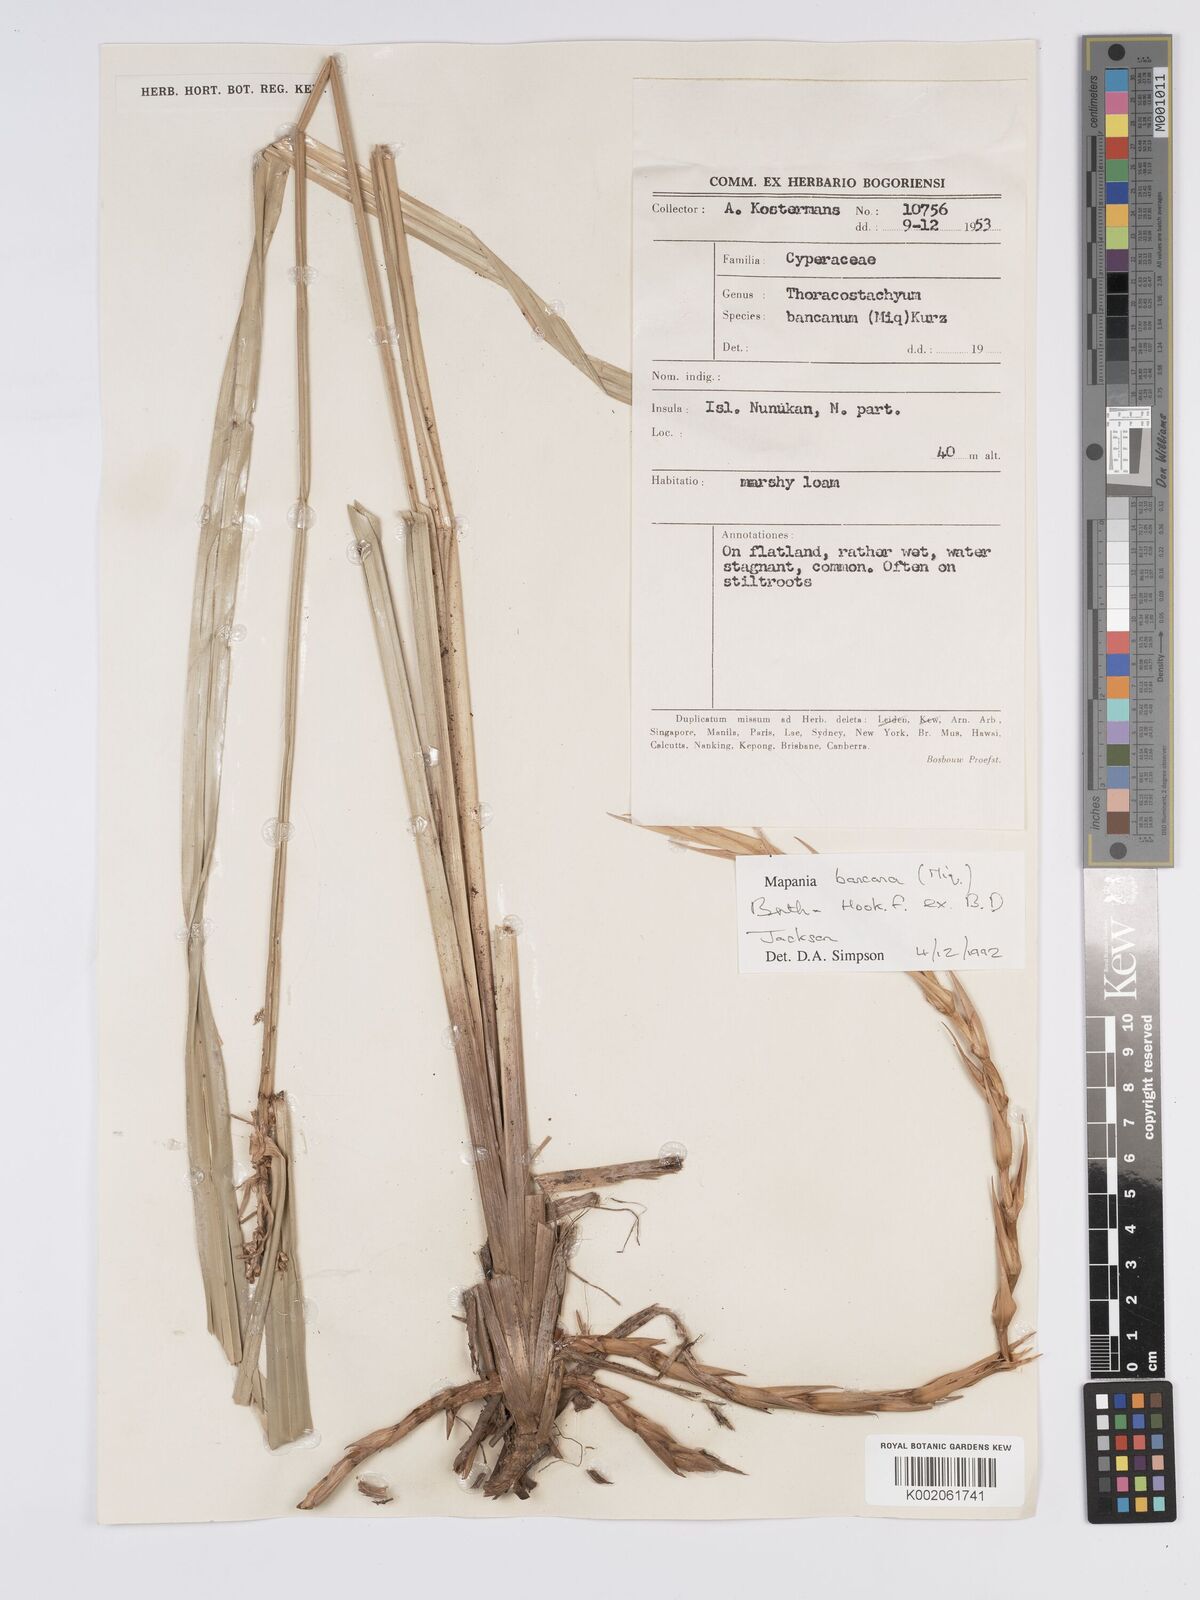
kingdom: Plantae
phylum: Tracheophyta
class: Liliopsida
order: Poales
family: Cyperaceae
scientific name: Cyperaceae
